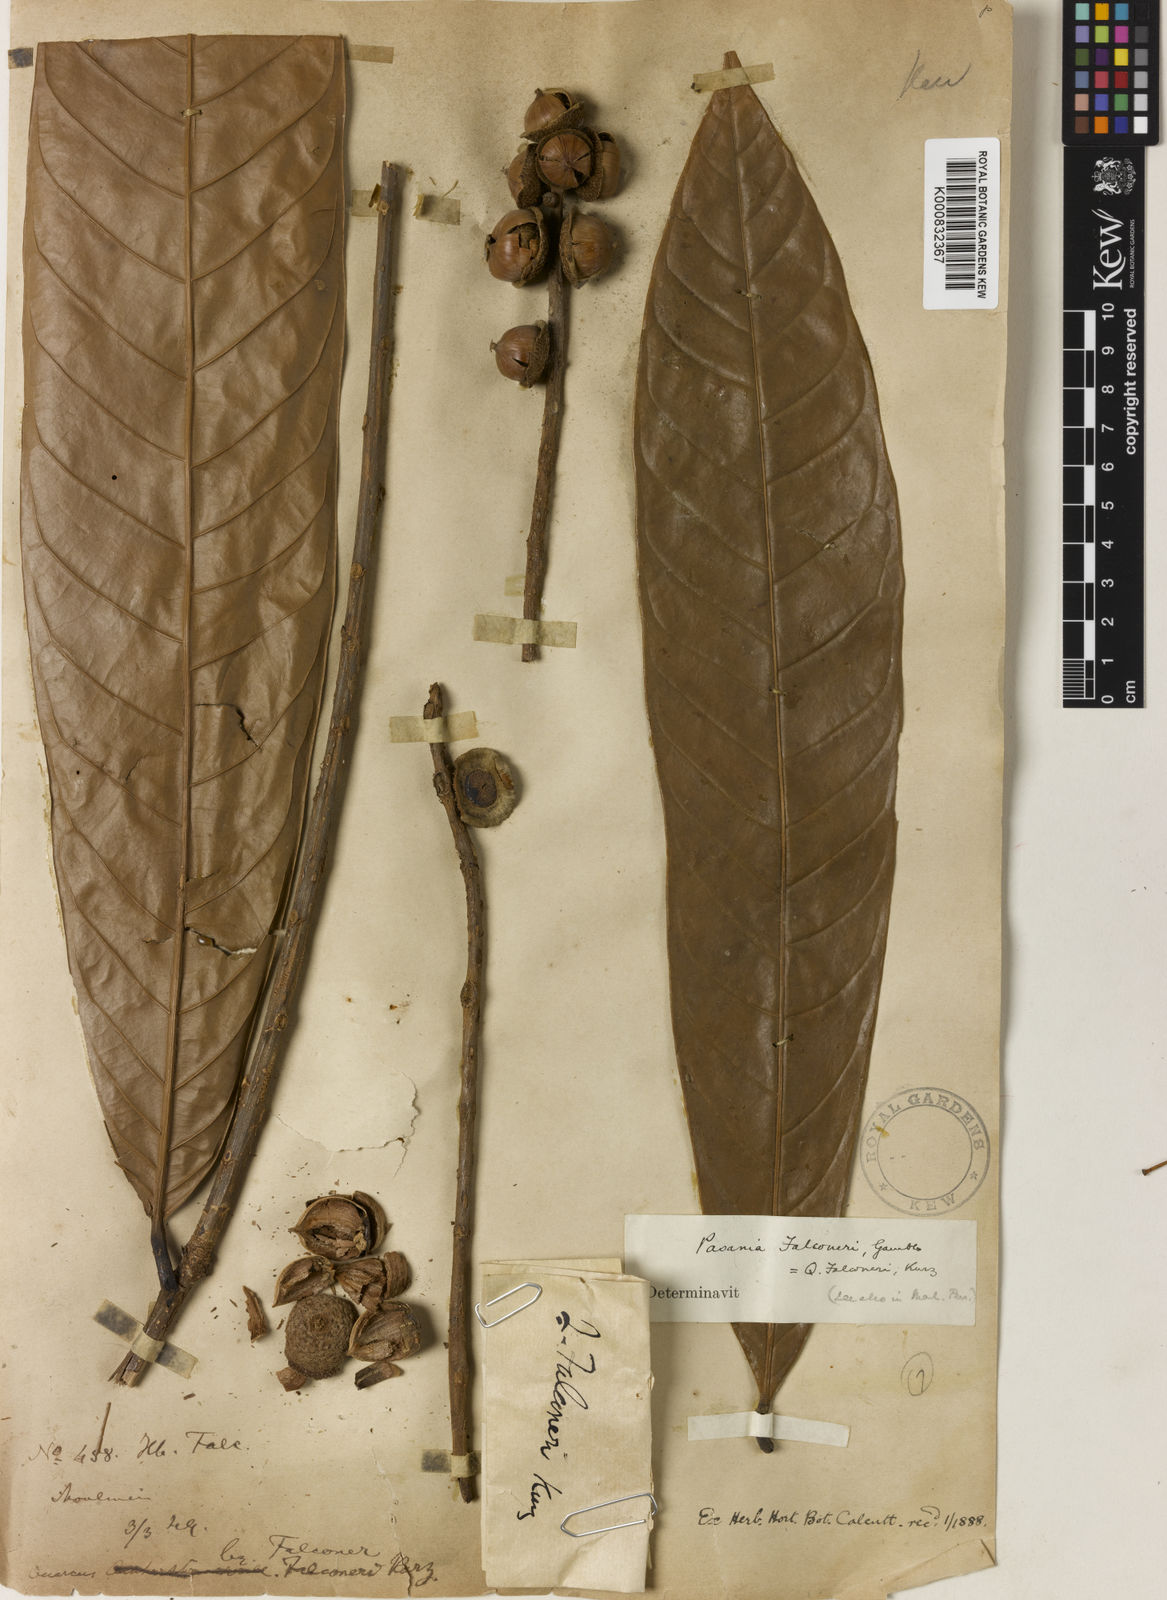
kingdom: Plantae
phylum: Tracheophyta
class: Magnoliopsida
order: Fagales
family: Fagaceae
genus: Lithocarpus
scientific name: Lithocarpus falconeri
